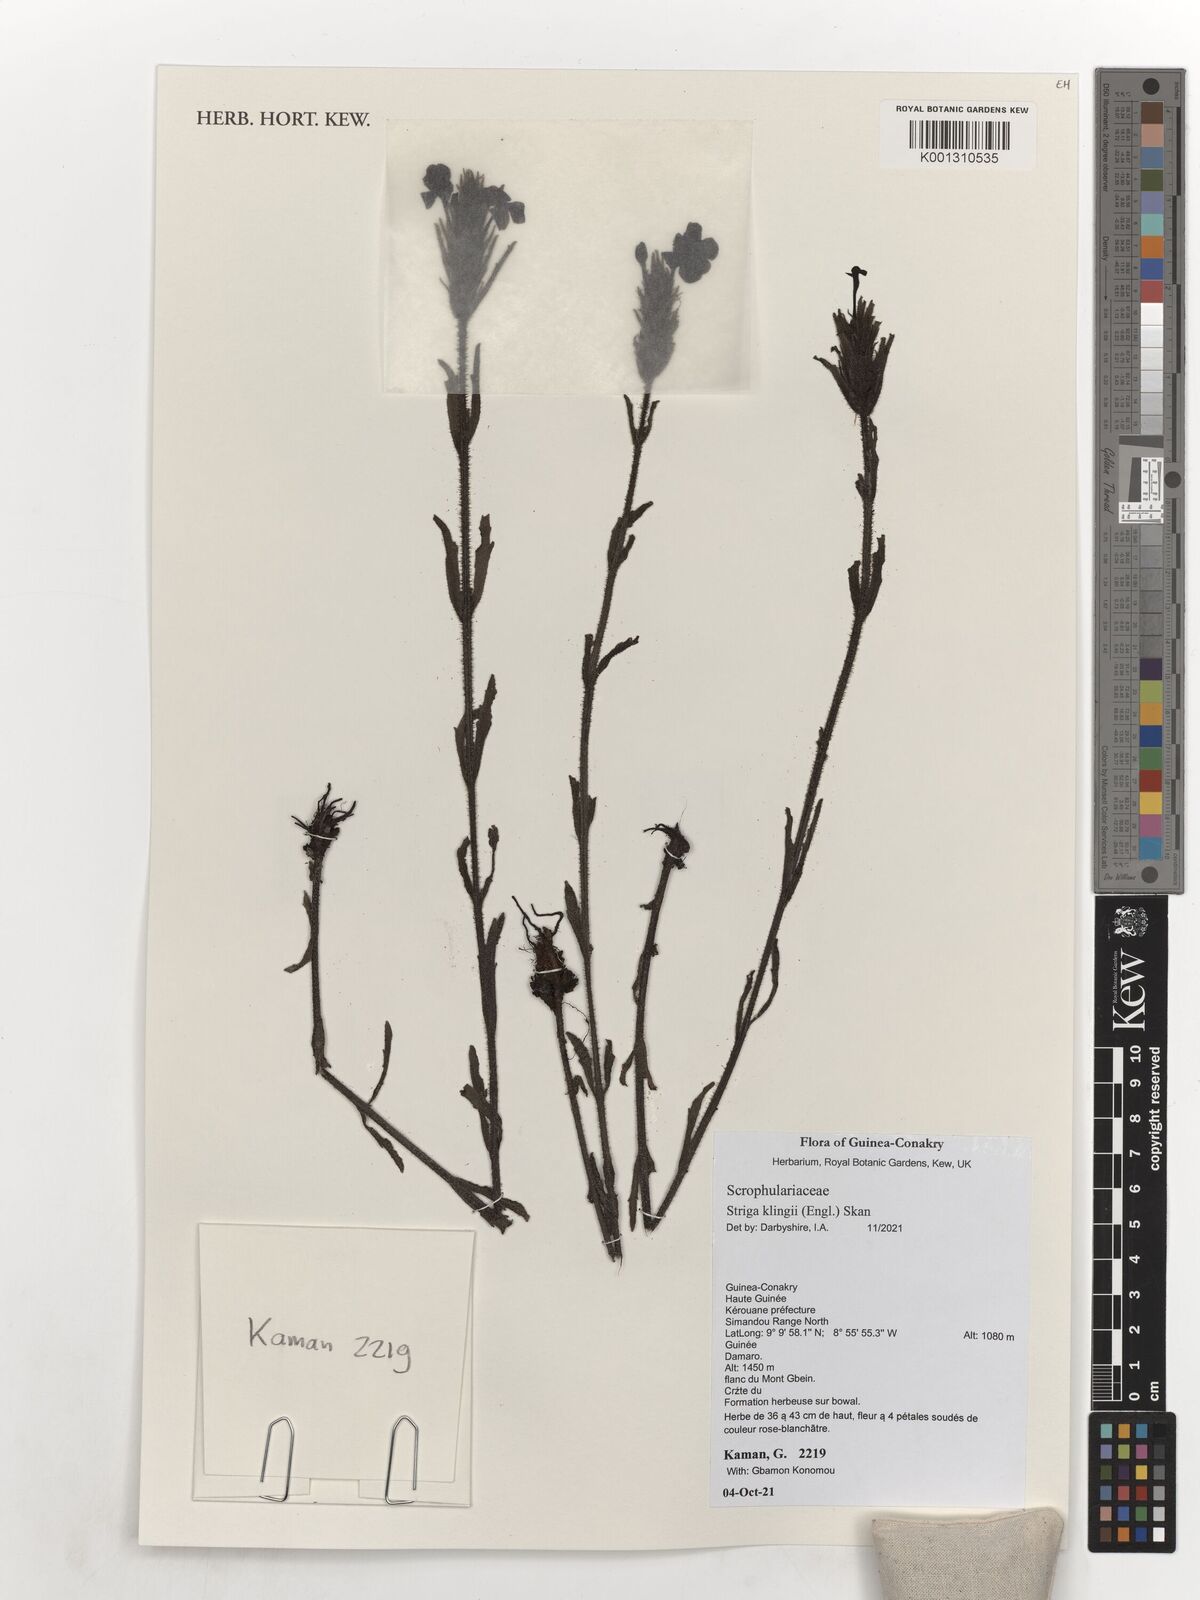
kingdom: Plantae
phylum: Tracheophyta
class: Magnoliopsida
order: Lamiales
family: Orobanchaceae
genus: Striga
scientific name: Striga klingii
